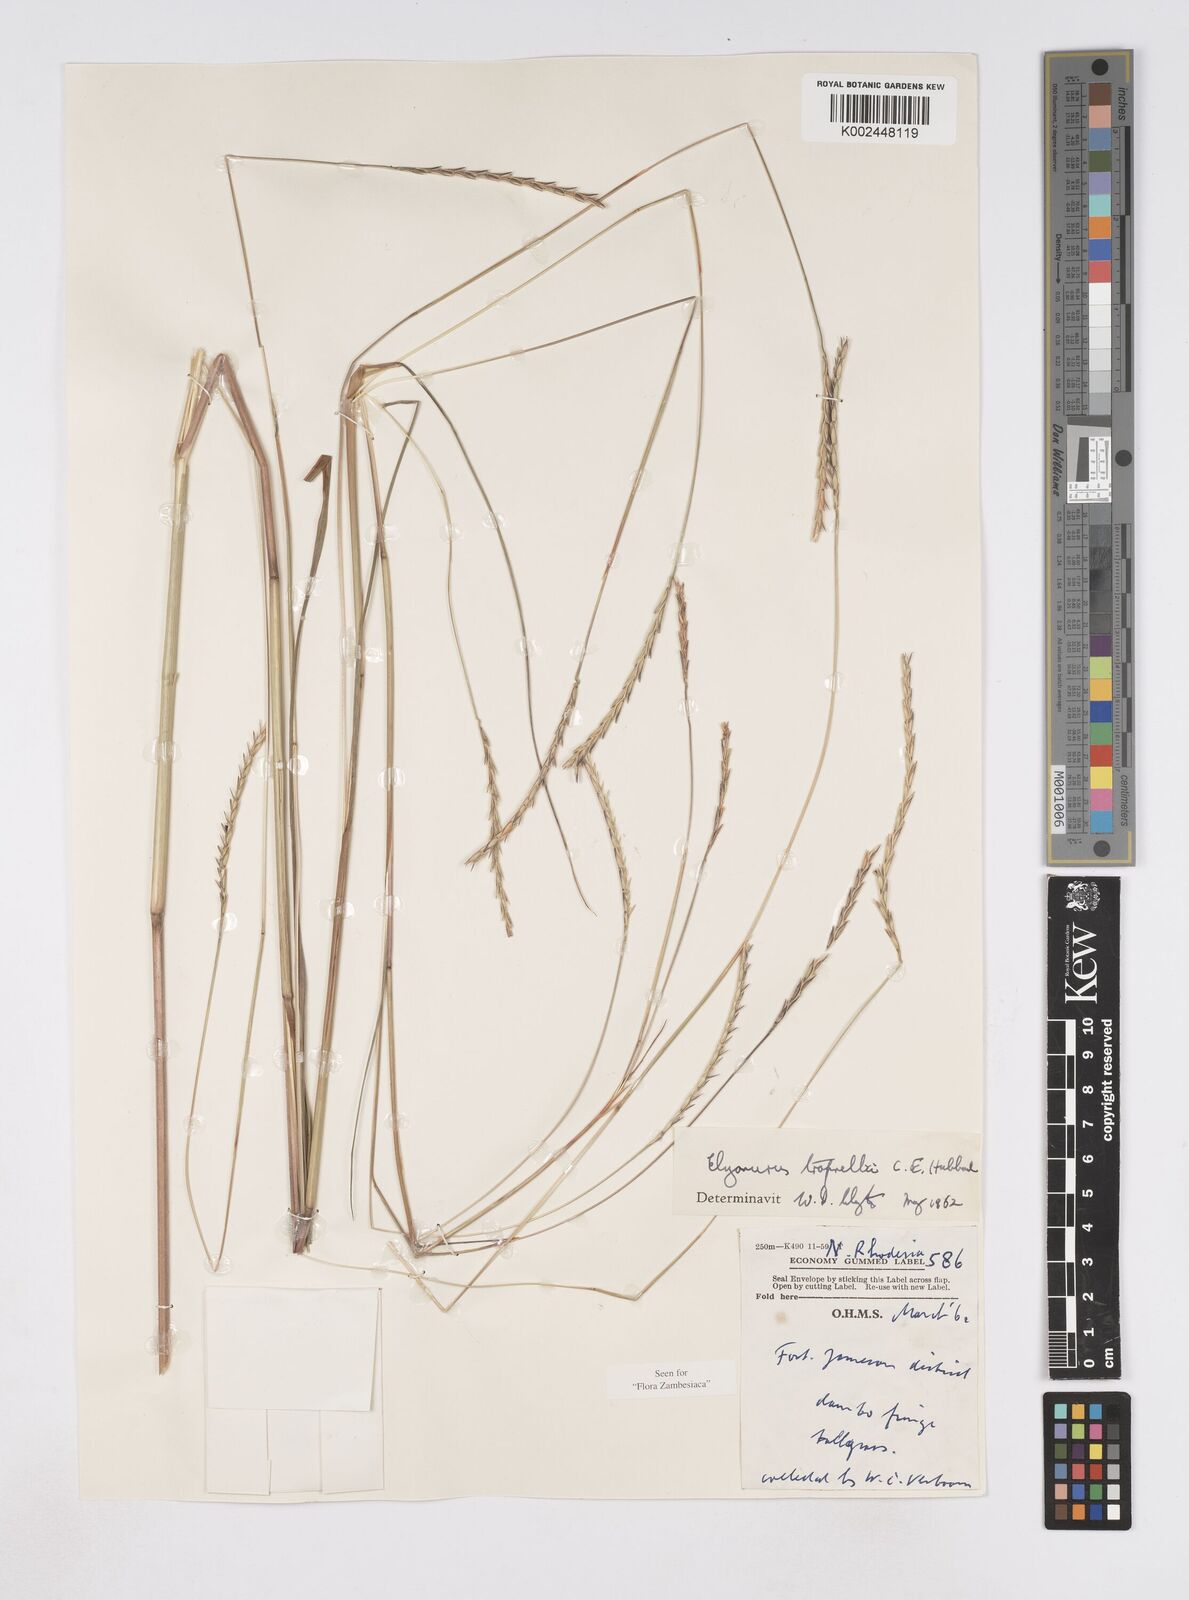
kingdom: Plantae
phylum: Tracheophyta
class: Liliopsida
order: Poales
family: Poaceae
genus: Elionurus
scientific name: Elionurus tripsacoides
